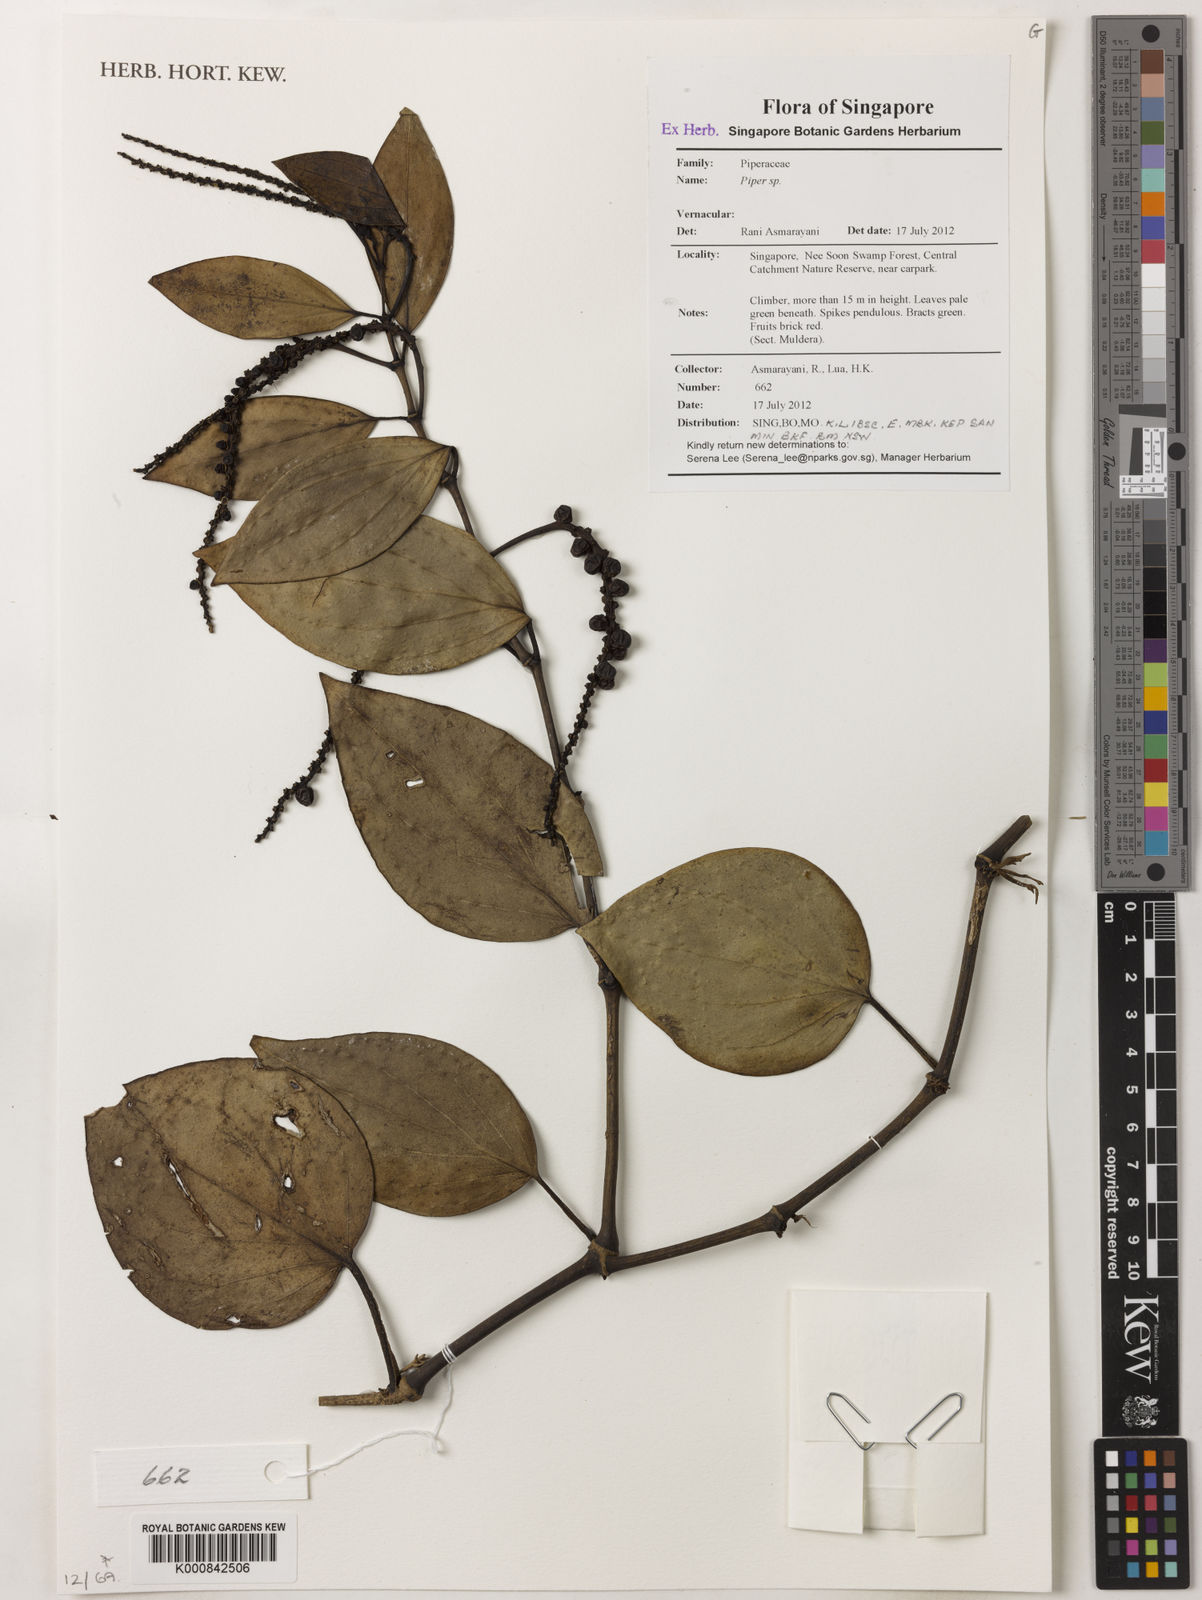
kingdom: Plantae
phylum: Tracheophyta
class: Magnoliopsida
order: Piperales
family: Piperaceae
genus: Piper
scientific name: Piper
